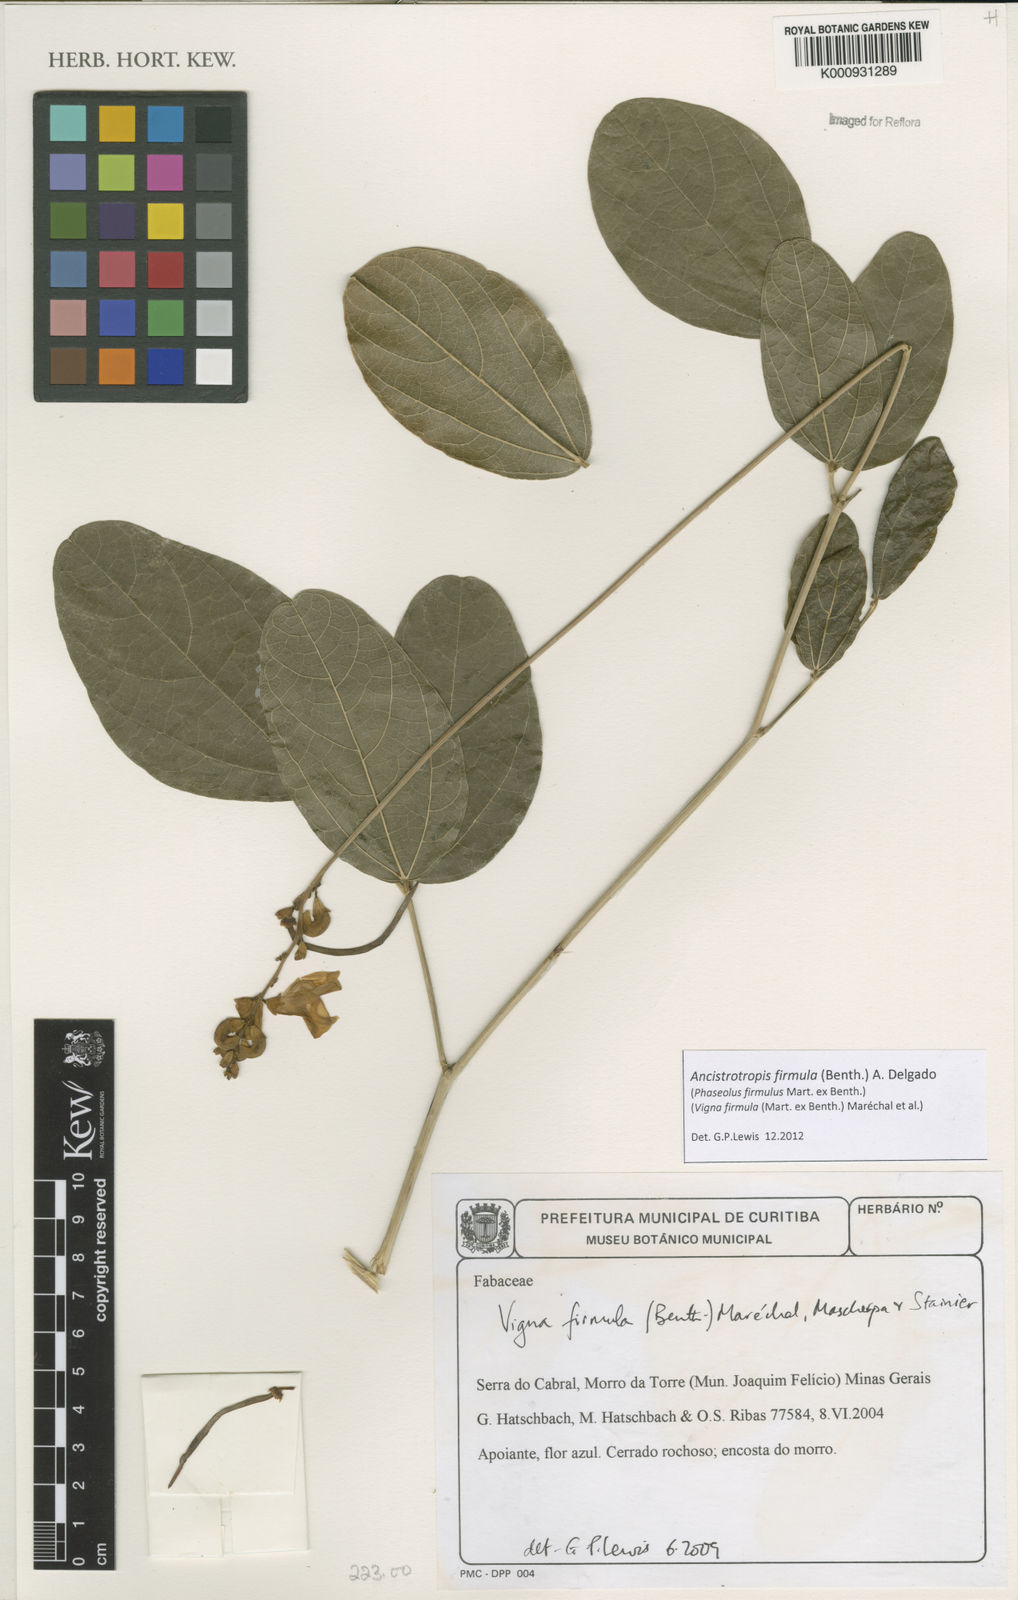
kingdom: Plantae
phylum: Tracheophyta
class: Magnoliopsida
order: Fabales
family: Fabaceae
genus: Ancistrotropis
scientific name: Ancistrotropis firmula
